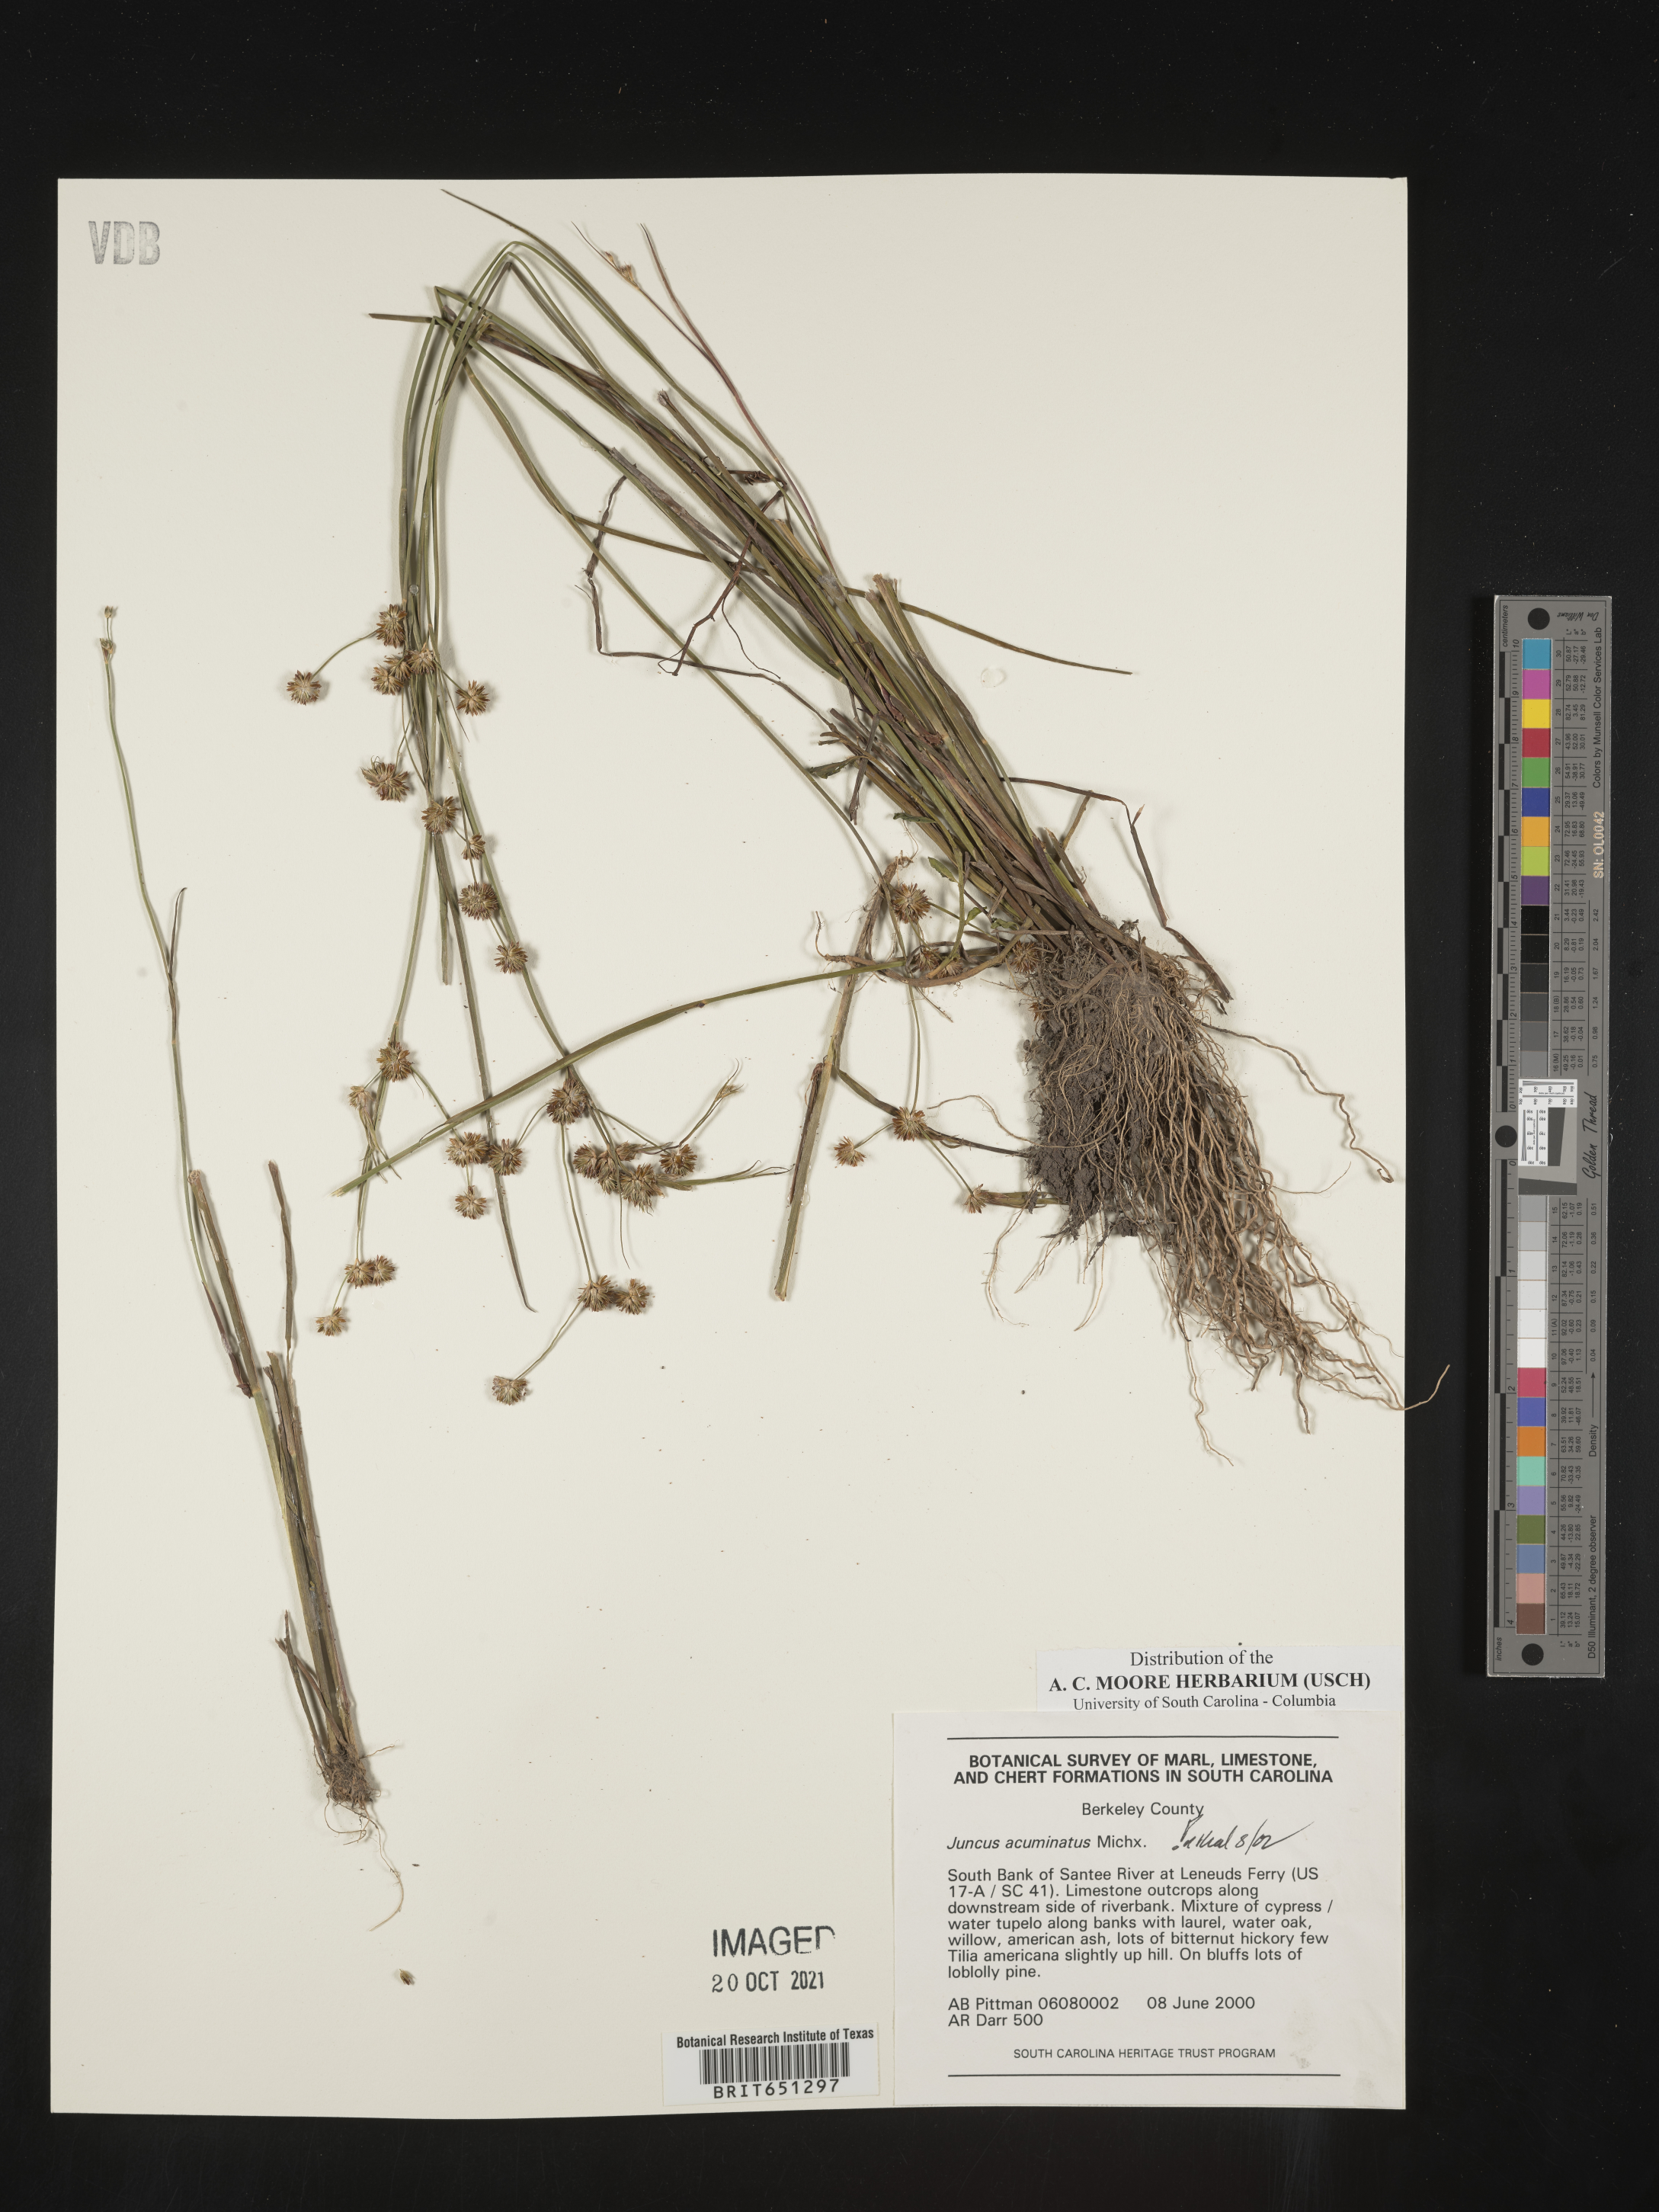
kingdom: Plantae
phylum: Tracheophyta
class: Liliopsida
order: Poales
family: Juncaceae
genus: Juncus
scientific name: Juncus acuminatus
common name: Knotty-leaved rush
